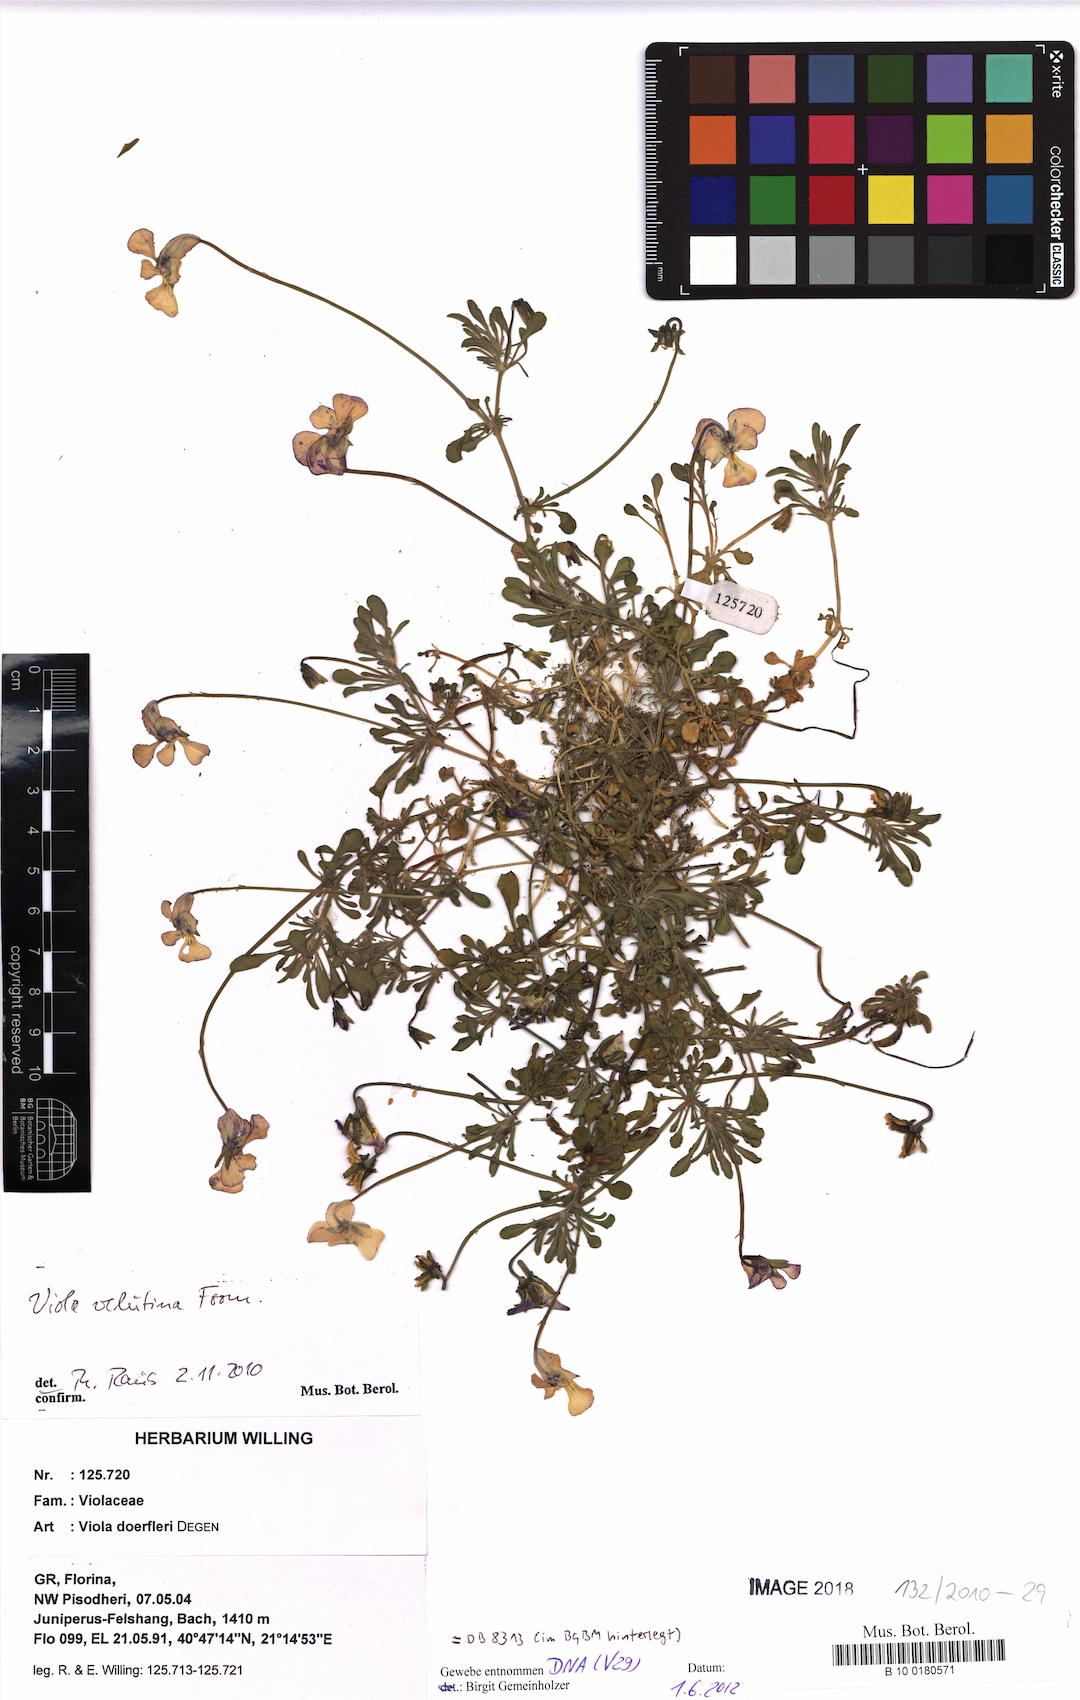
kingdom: Plantae
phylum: Tracheophyta
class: Magnoliopsida
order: Malpighiales
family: Violaceae
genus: Viola
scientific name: Viola velutina
